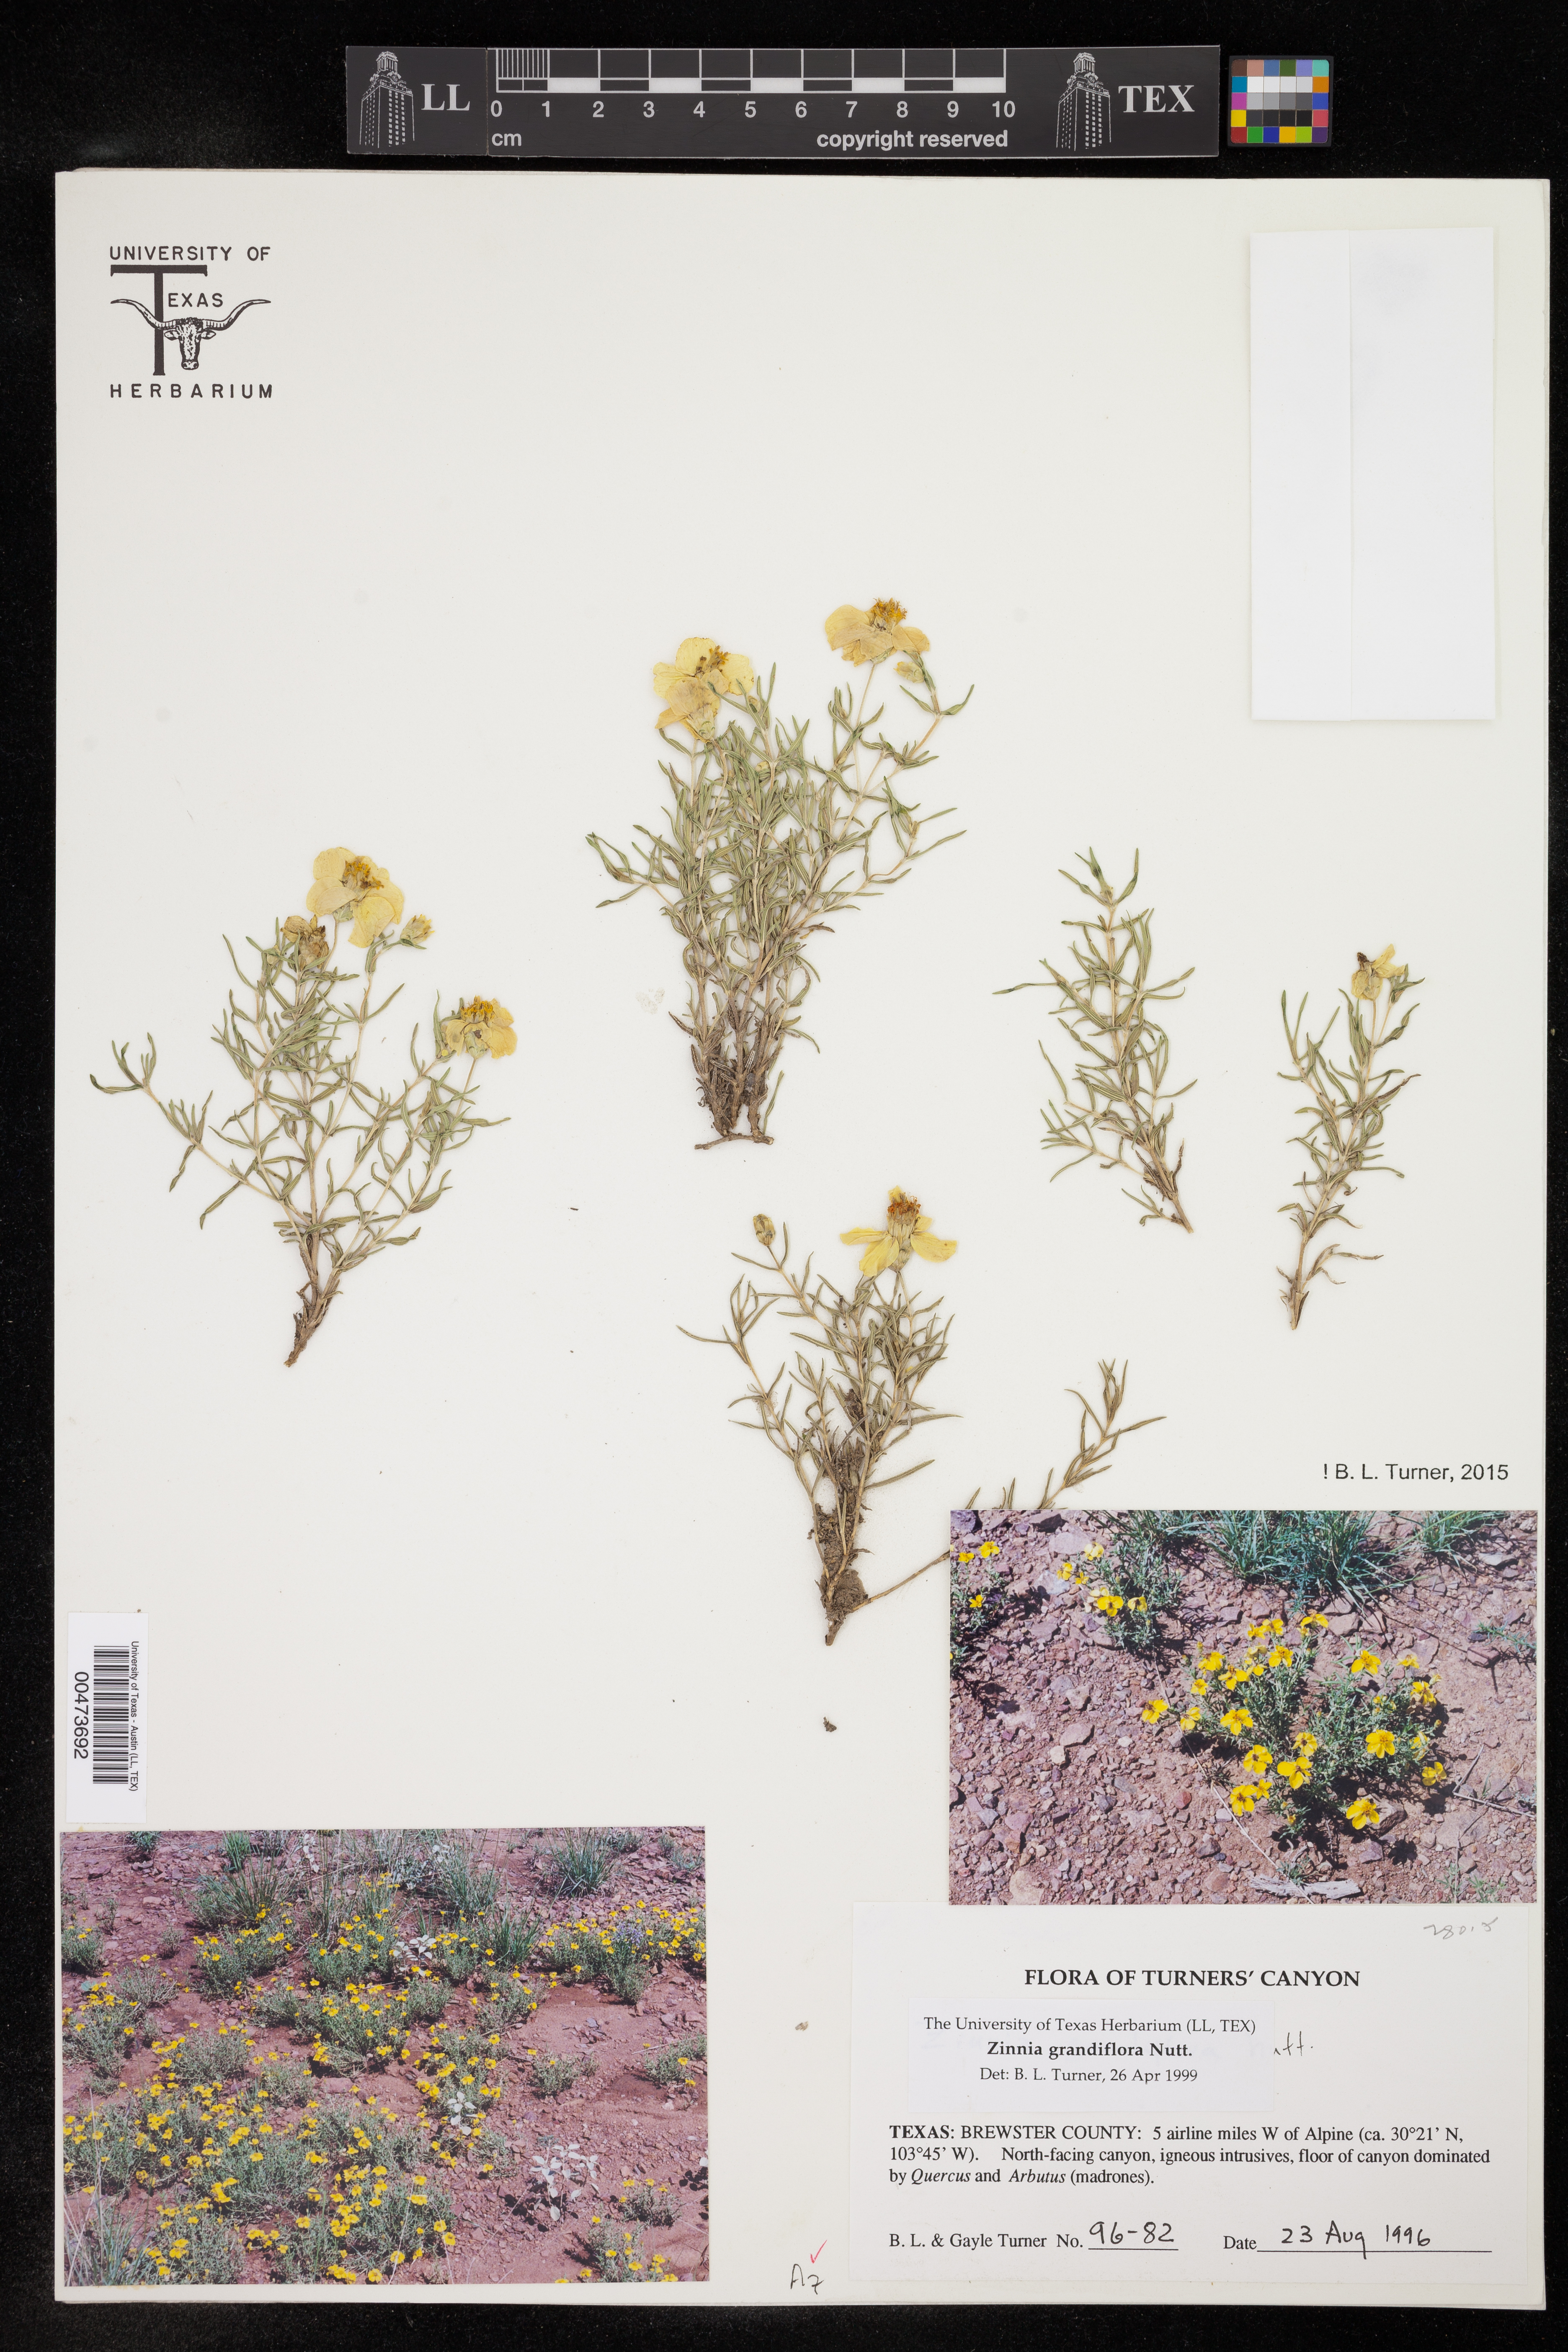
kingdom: Plantae
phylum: Tracheophyta
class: Magnoliopsida
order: Asterales
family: Asteraceae
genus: Zinnia
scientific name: Zinnia grandiflora
